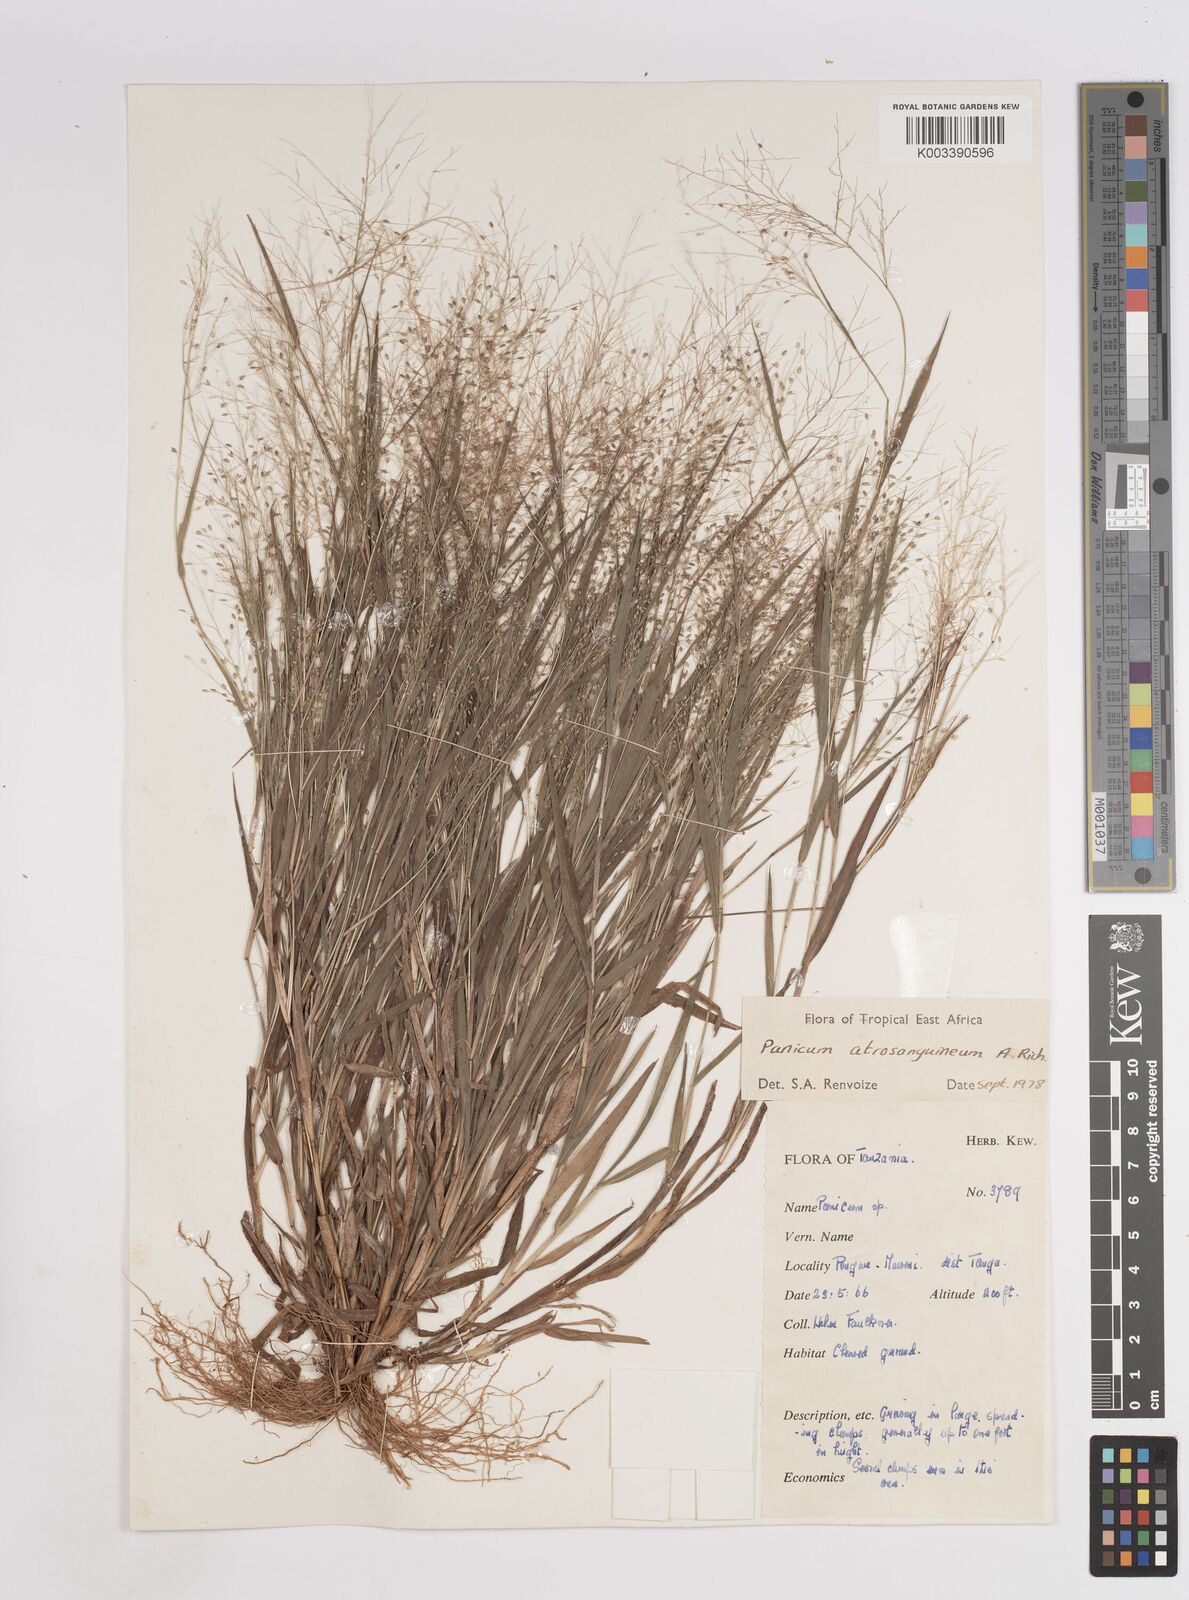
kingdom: Plantae
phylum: Tracheophyta
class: Liliopsida
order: Poales
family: Poaceae
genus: Panicum
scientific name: Panicum atrosanguineum
